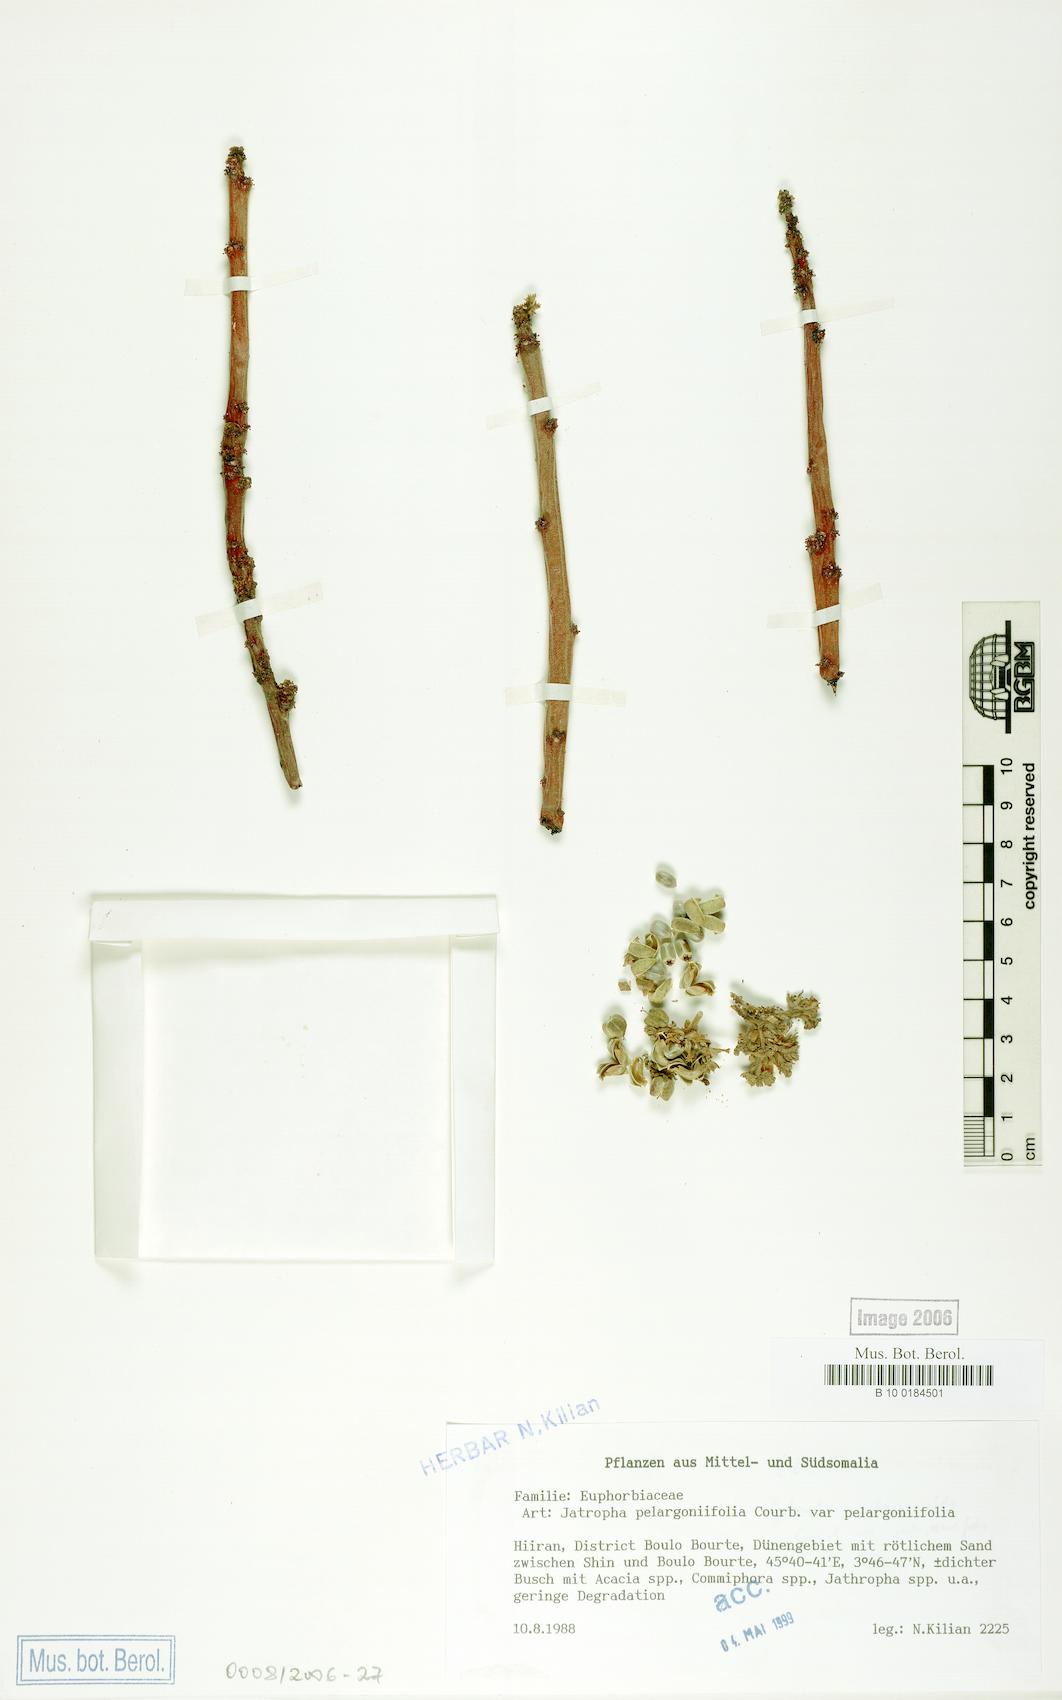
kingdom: Plantae
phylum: Tracheophyta
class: Magnoliopsida
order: Malpighiales
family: Euphorbiaceae
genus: Jatropha
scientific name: Jatropha pelargoniifolia
